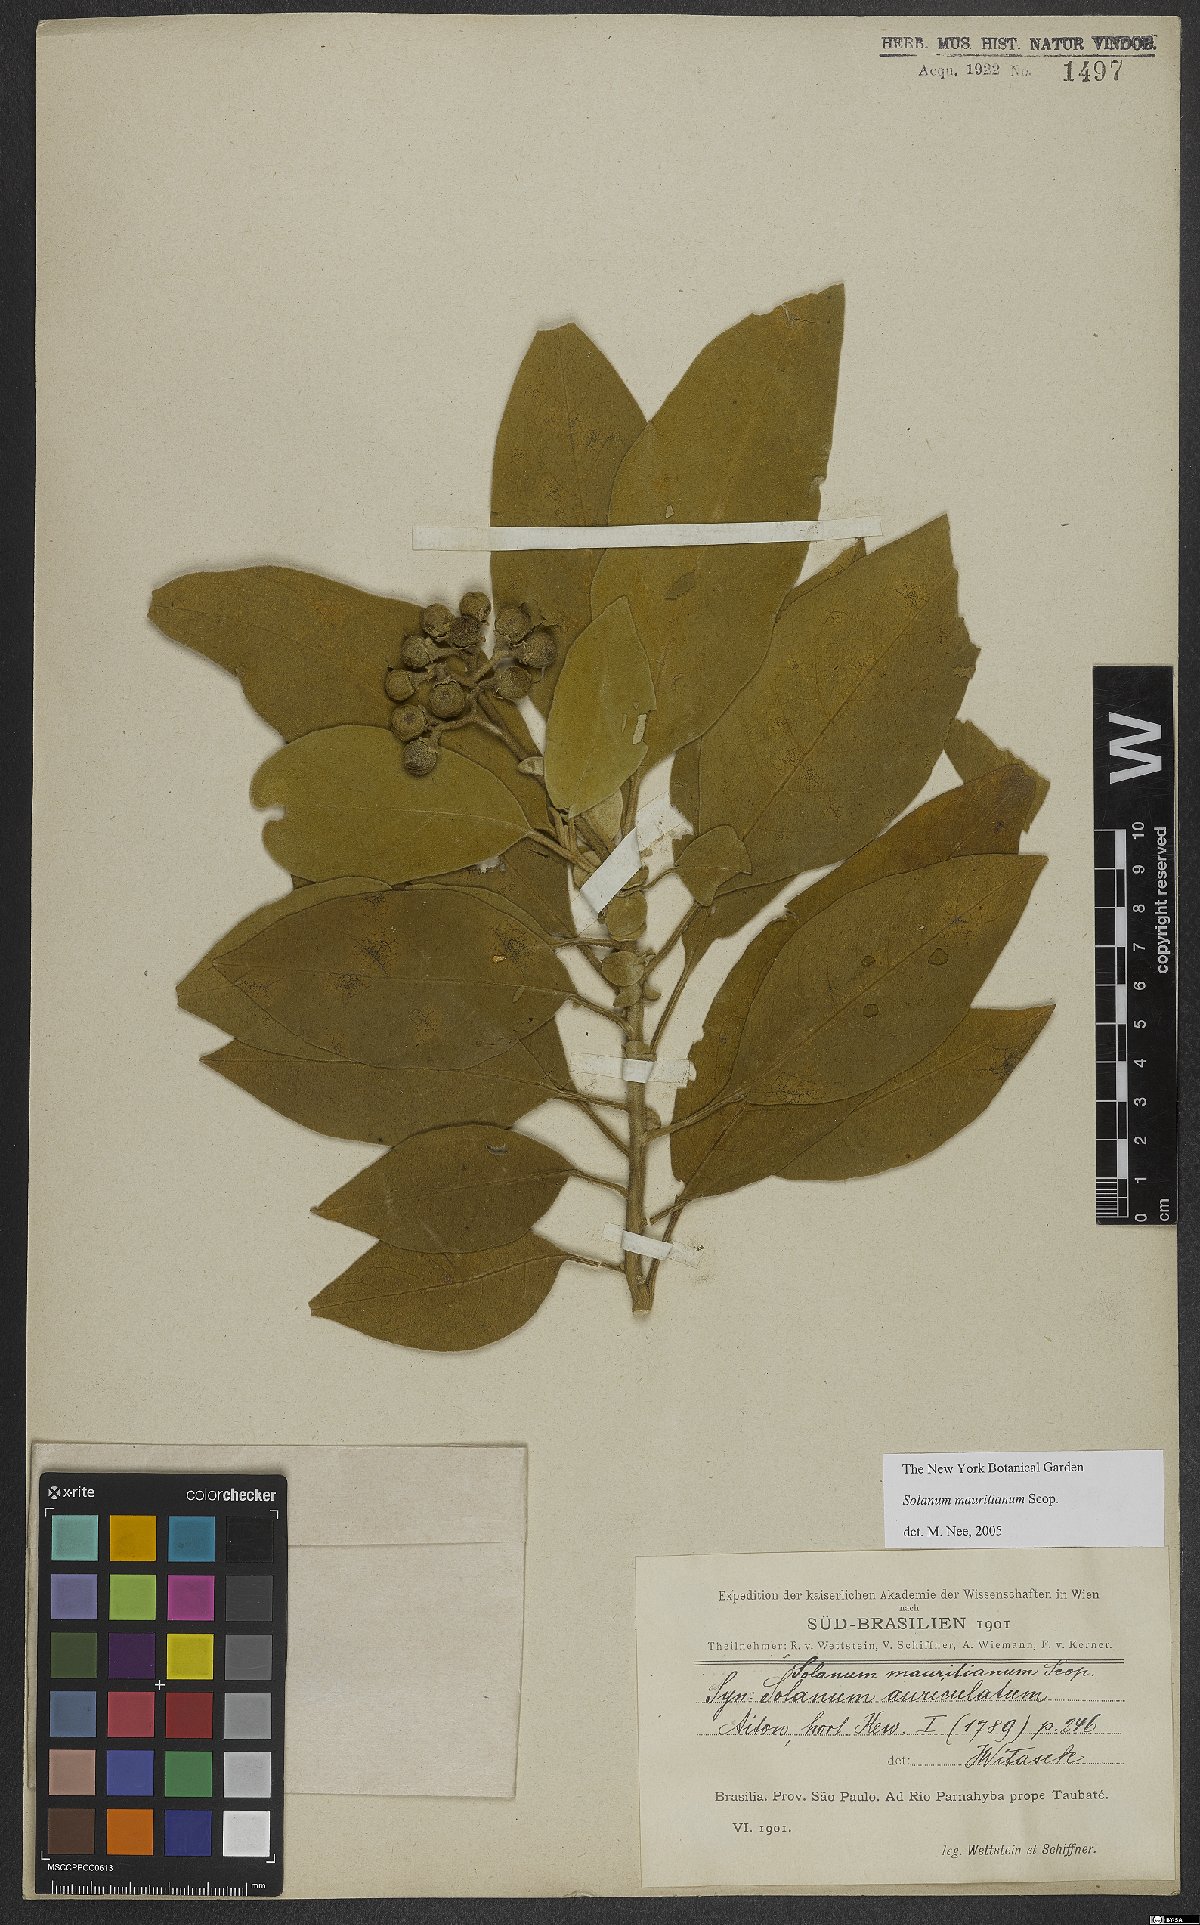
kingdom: Plantae
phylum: Tracheophyta
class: Magnoliopsida
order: Solanales
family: Solanaceae
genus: Solanum
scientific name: Solanum mauritianum
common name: Earleaf nightshade
